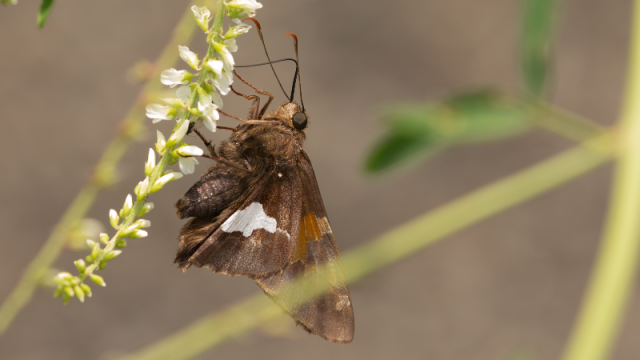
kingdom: Animalia
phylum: Arthropoda
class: Insecta
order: Lepidoptera
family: Hesperiidae
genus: Epargyreus
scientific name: Epargyreus clarus
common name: Silver-spotted Skipper
